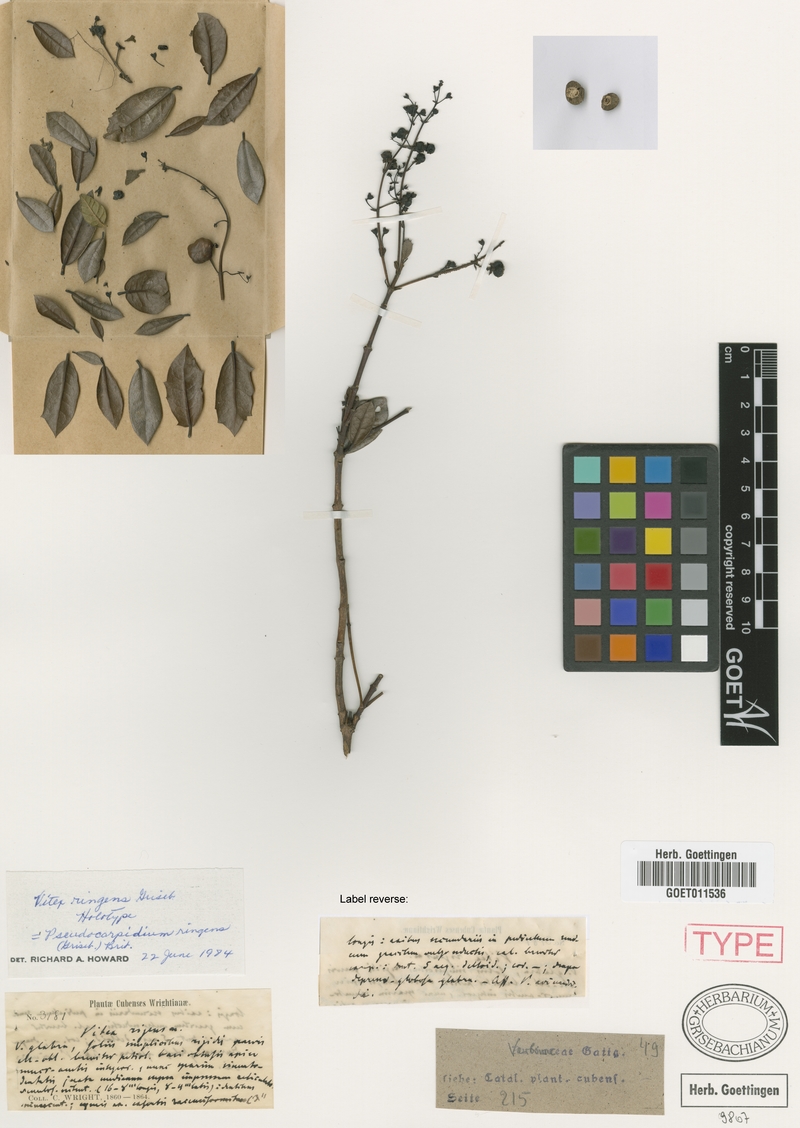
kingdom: Plantae
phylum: Tracheophyta
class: Magnoliopsida
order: Lamiales
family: Lamiaceae
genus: Pseudocarpidium
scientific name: Pseudocarpidium rigens
